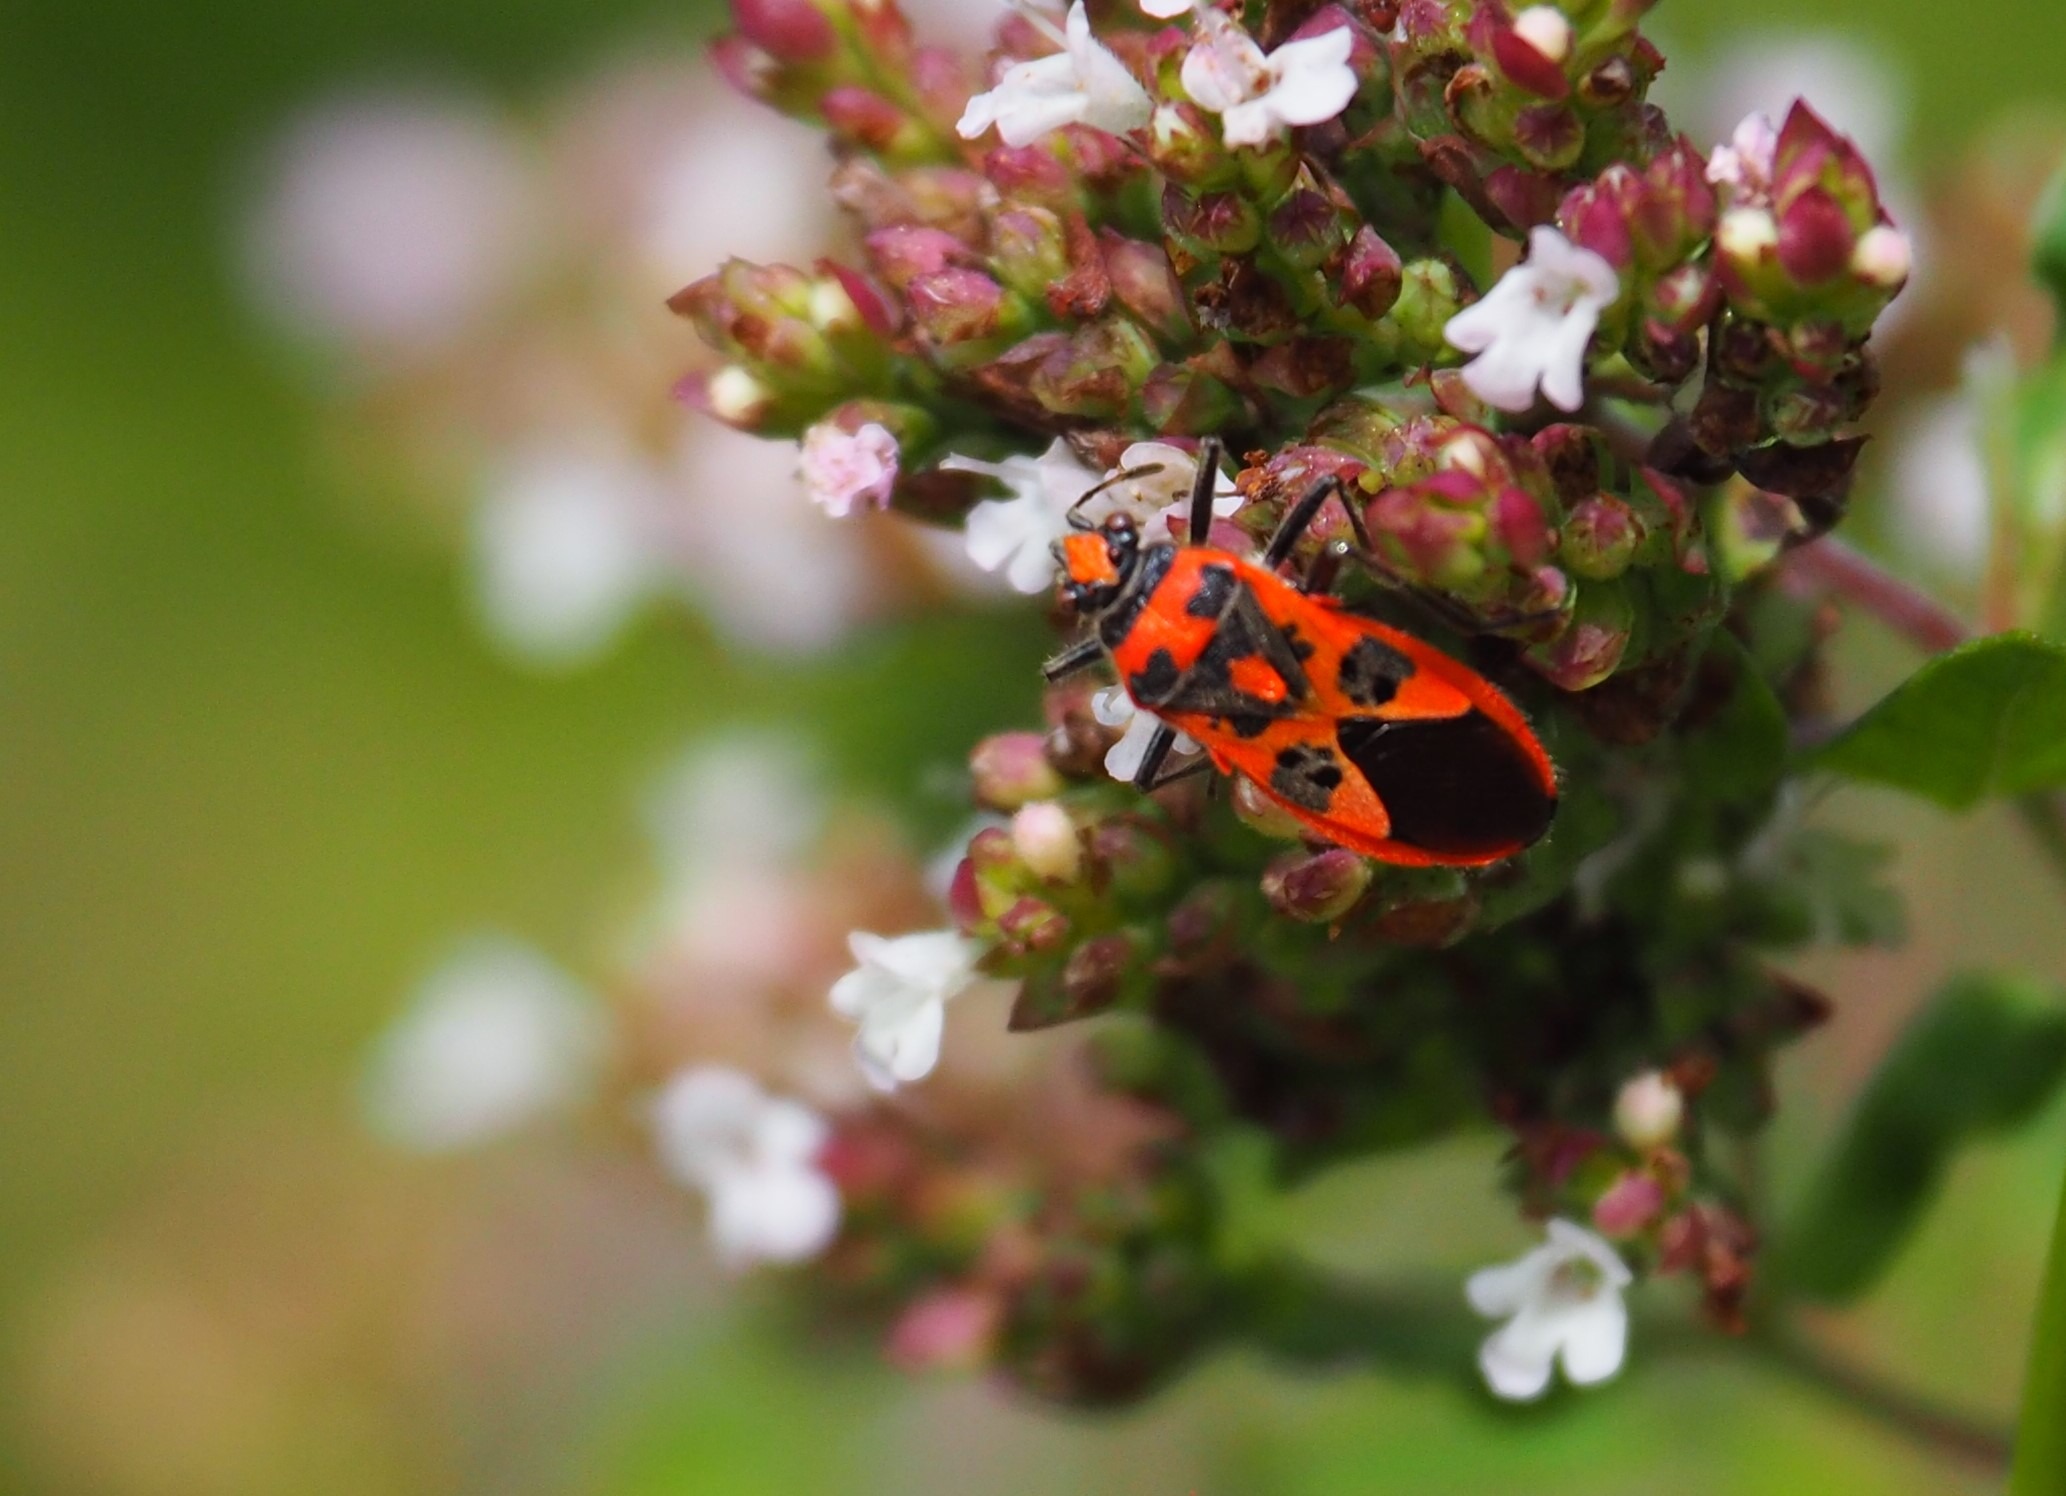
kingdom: Animalia
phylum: Arthropoda
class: Insecta
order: Hemiptera
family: Rhopalidae
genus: Corizus
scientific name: Corizus hyoscyami
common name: Rød kanttæge
